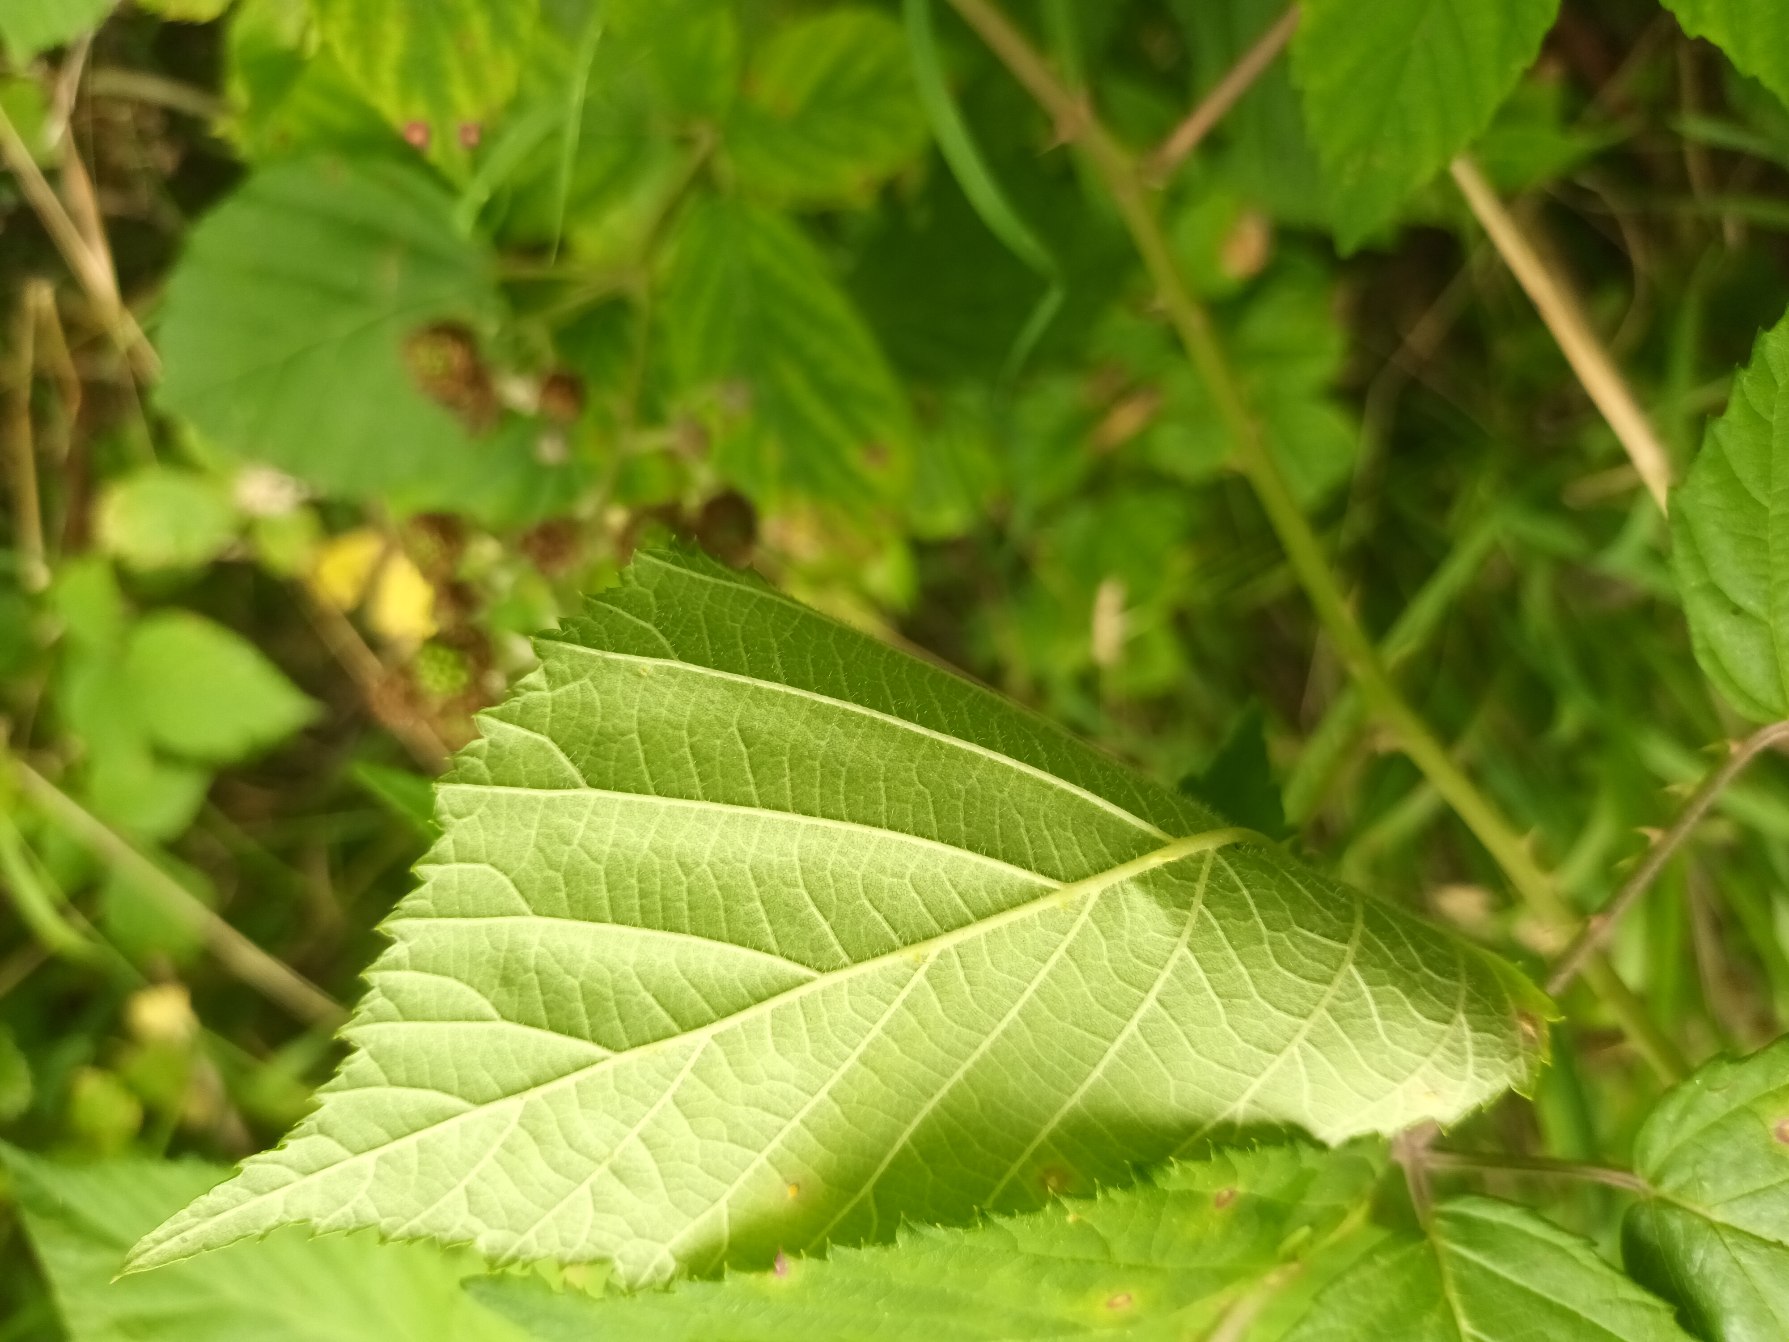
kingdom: Plantae
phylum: Tracheophyta
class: Magnoliopsida
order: Rosales
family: Rosaceae
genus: Rubus
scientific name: Rubus macrophyllus
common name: Storbladet brombær
